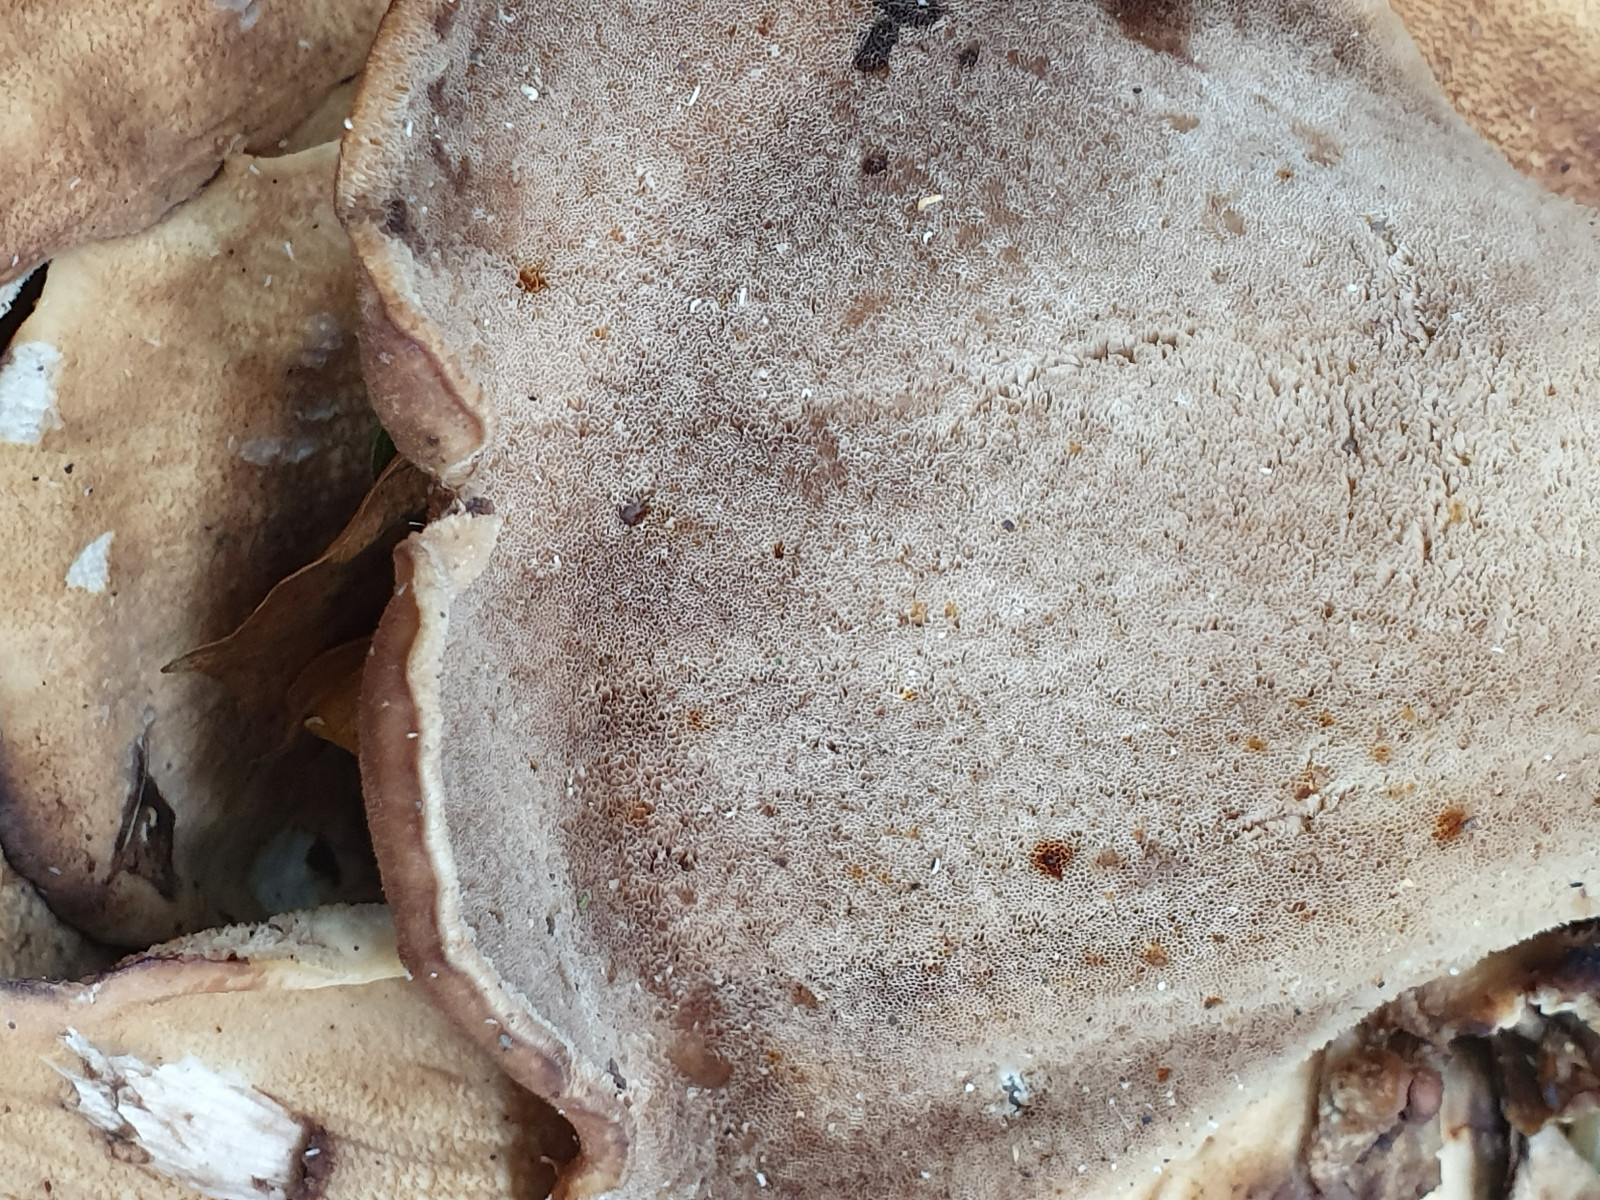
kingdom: Fungi
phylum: Basidiomycota
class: Agaricomycetes
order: Polyporales
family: Meripilaceae
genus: Meripilus
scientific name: Meripilus giganteus
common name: kæmpeporesvamp
